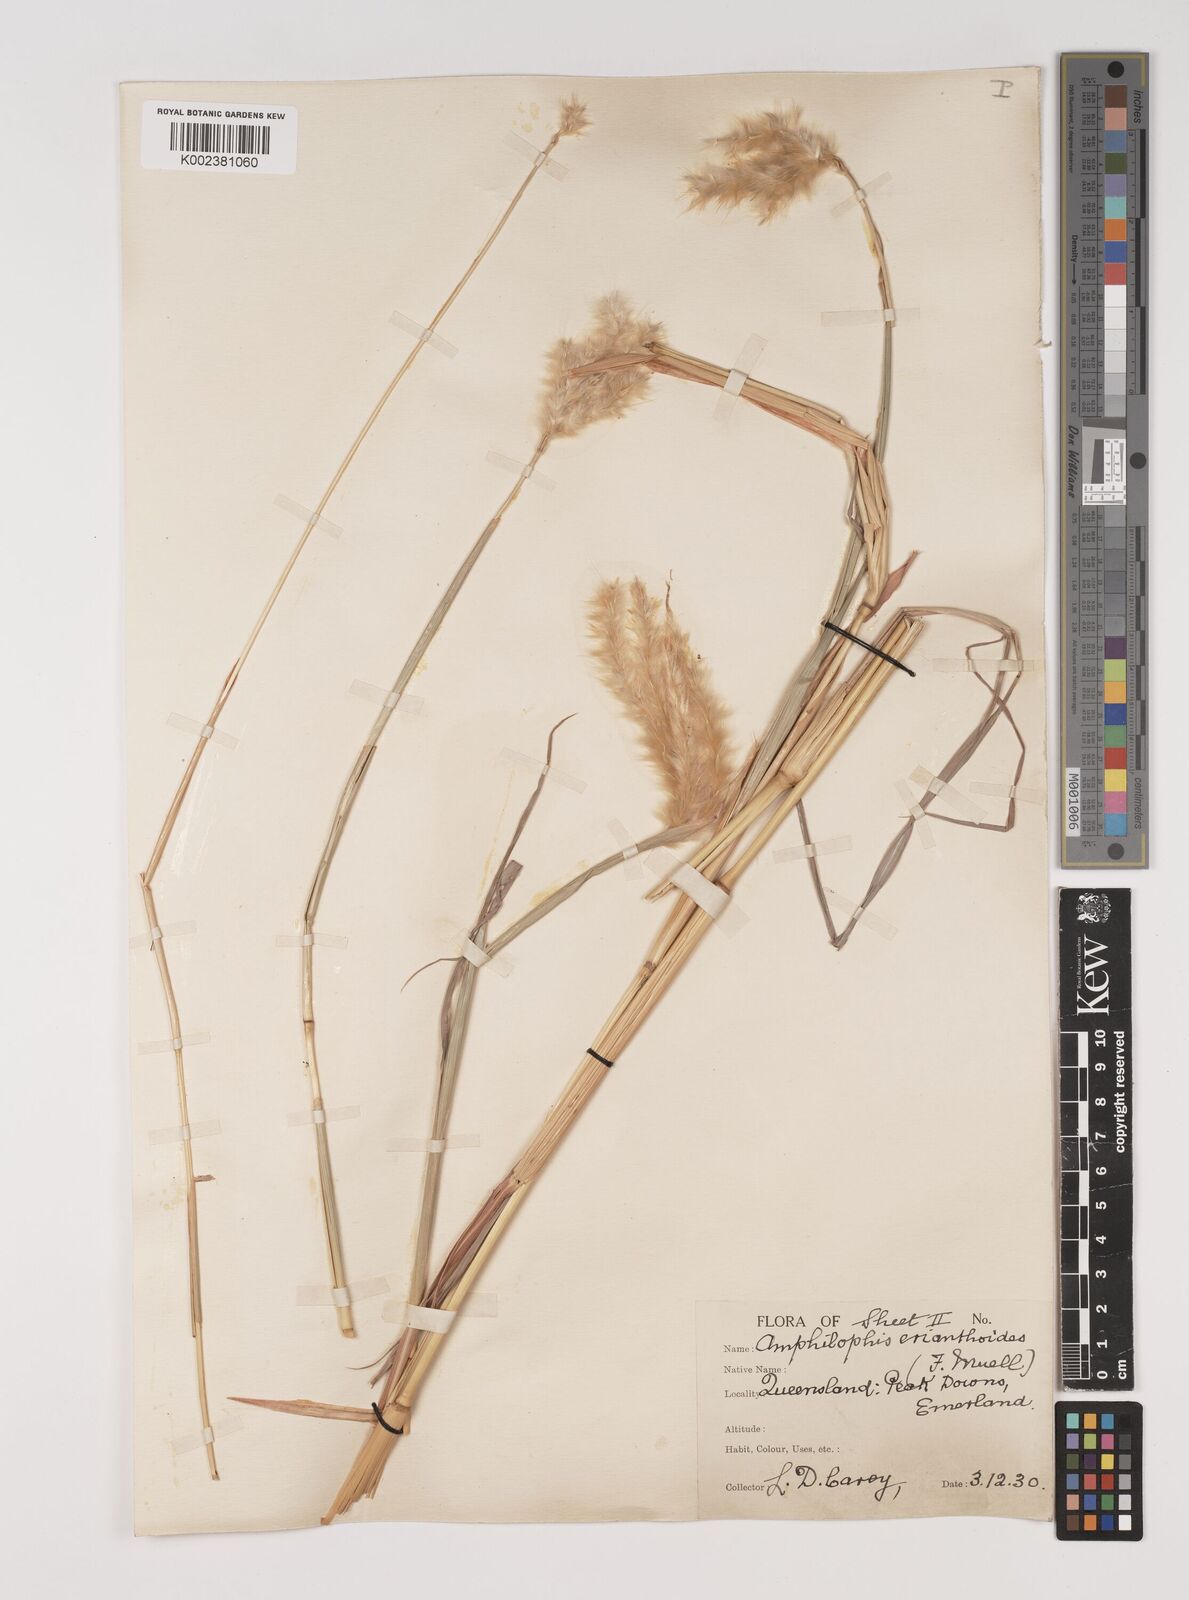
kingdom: Plantae
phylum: Tracheophyta
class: Liliopsida
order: Poales
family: Poaceae
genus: Bothriochloa
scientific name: Bothriochloa erianthoides
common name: Satin-top grass
